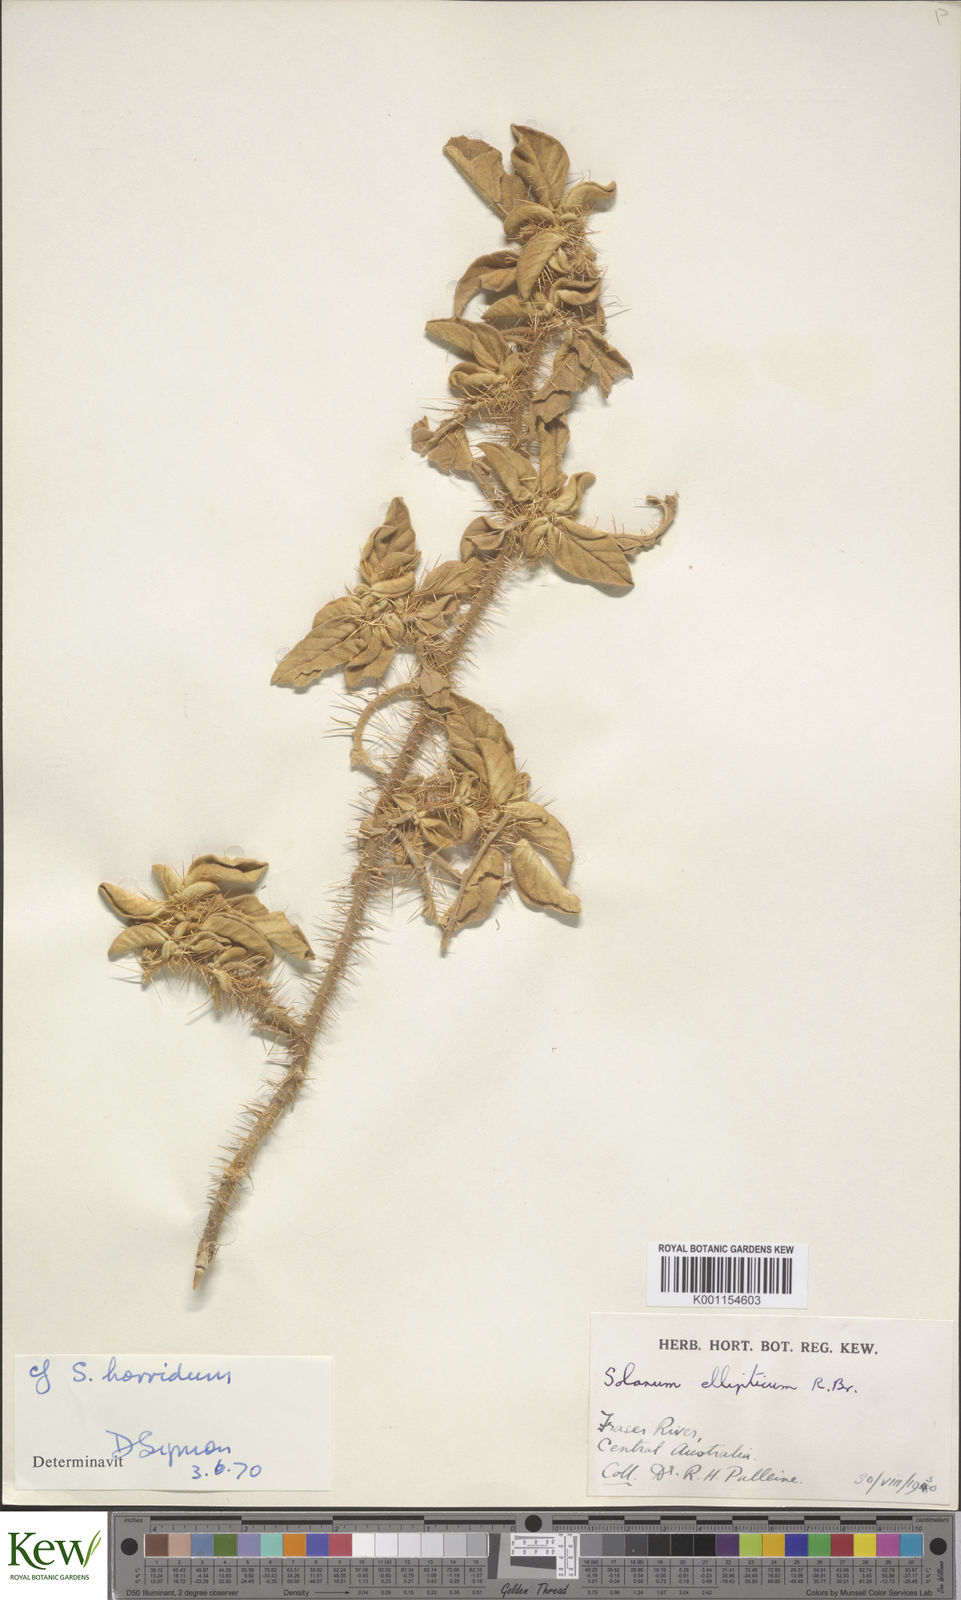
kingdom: Plantae
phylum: Tracheophyta
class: Magnoliopsida
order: Solanales
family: Solanaceae
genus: Solanum
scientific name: Solanum ellipticum
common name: Potato-bush
